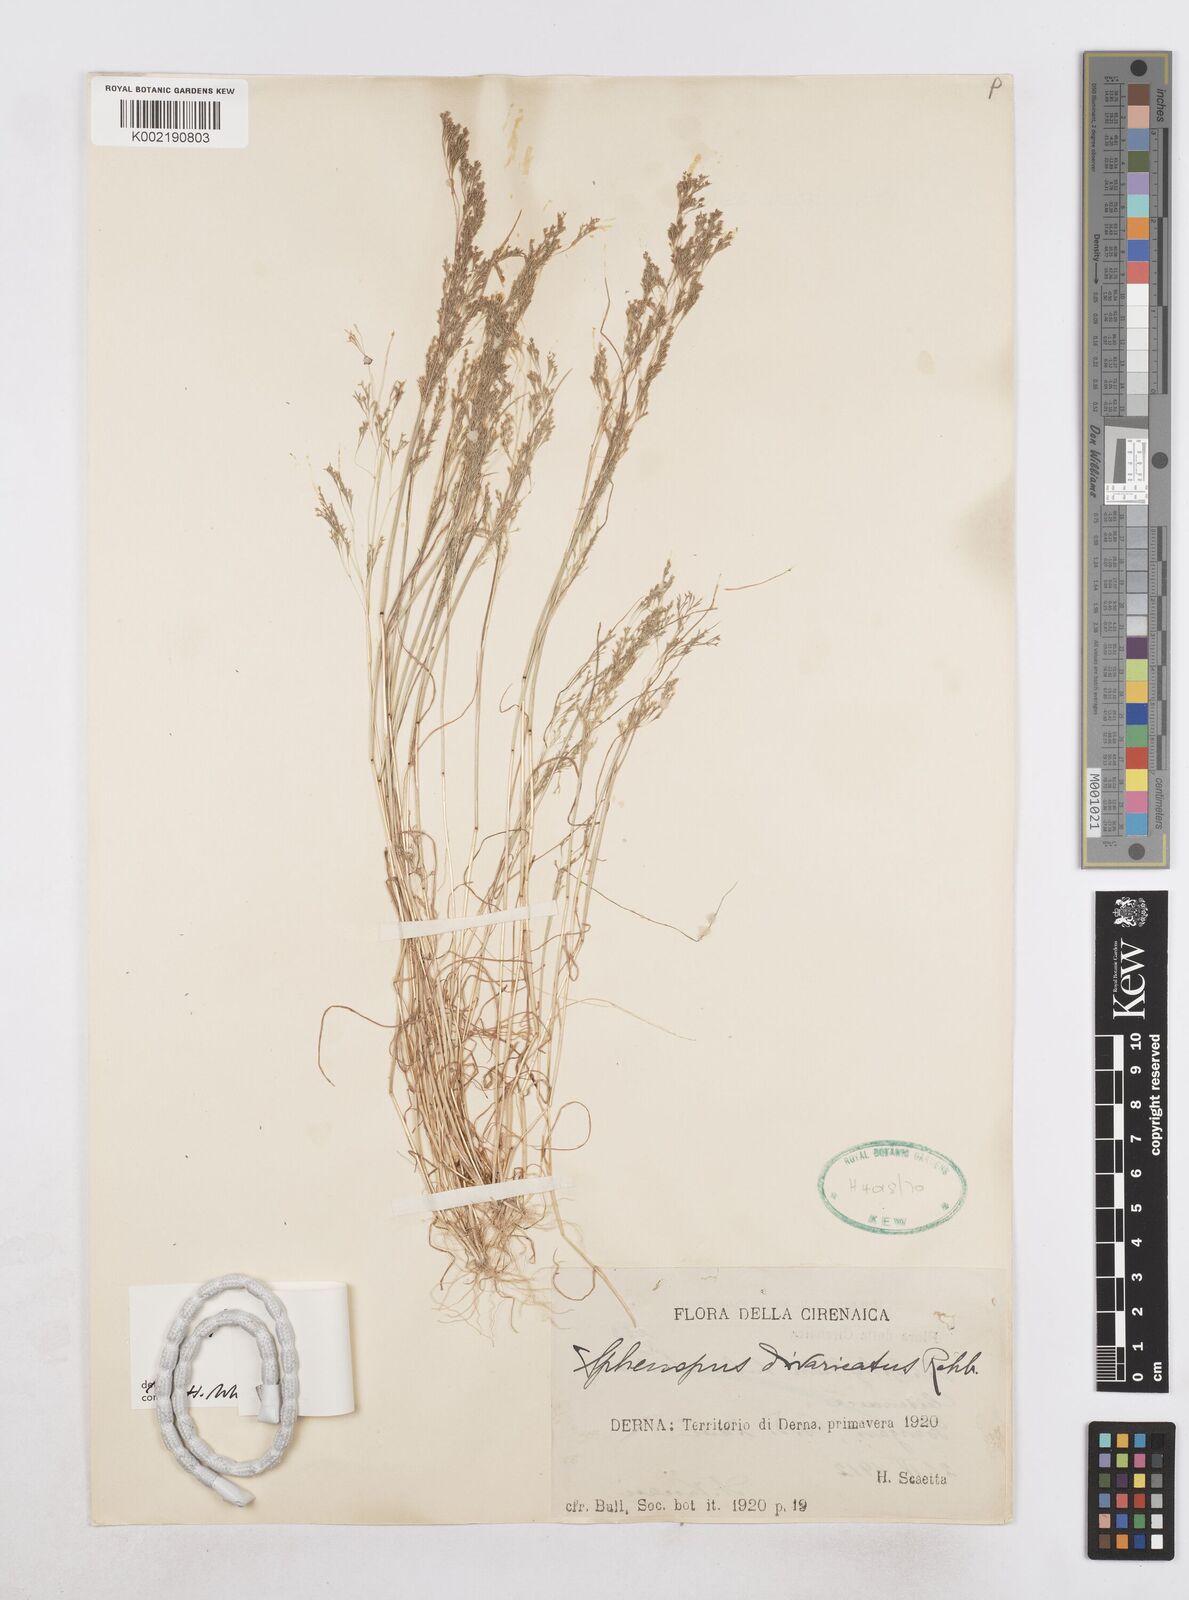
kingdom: Plantae
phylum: Tracheophyta
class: Liliopsida
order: Poales
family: Poaceae
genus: Sphenopus
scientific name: Sphenopus divaricatus
